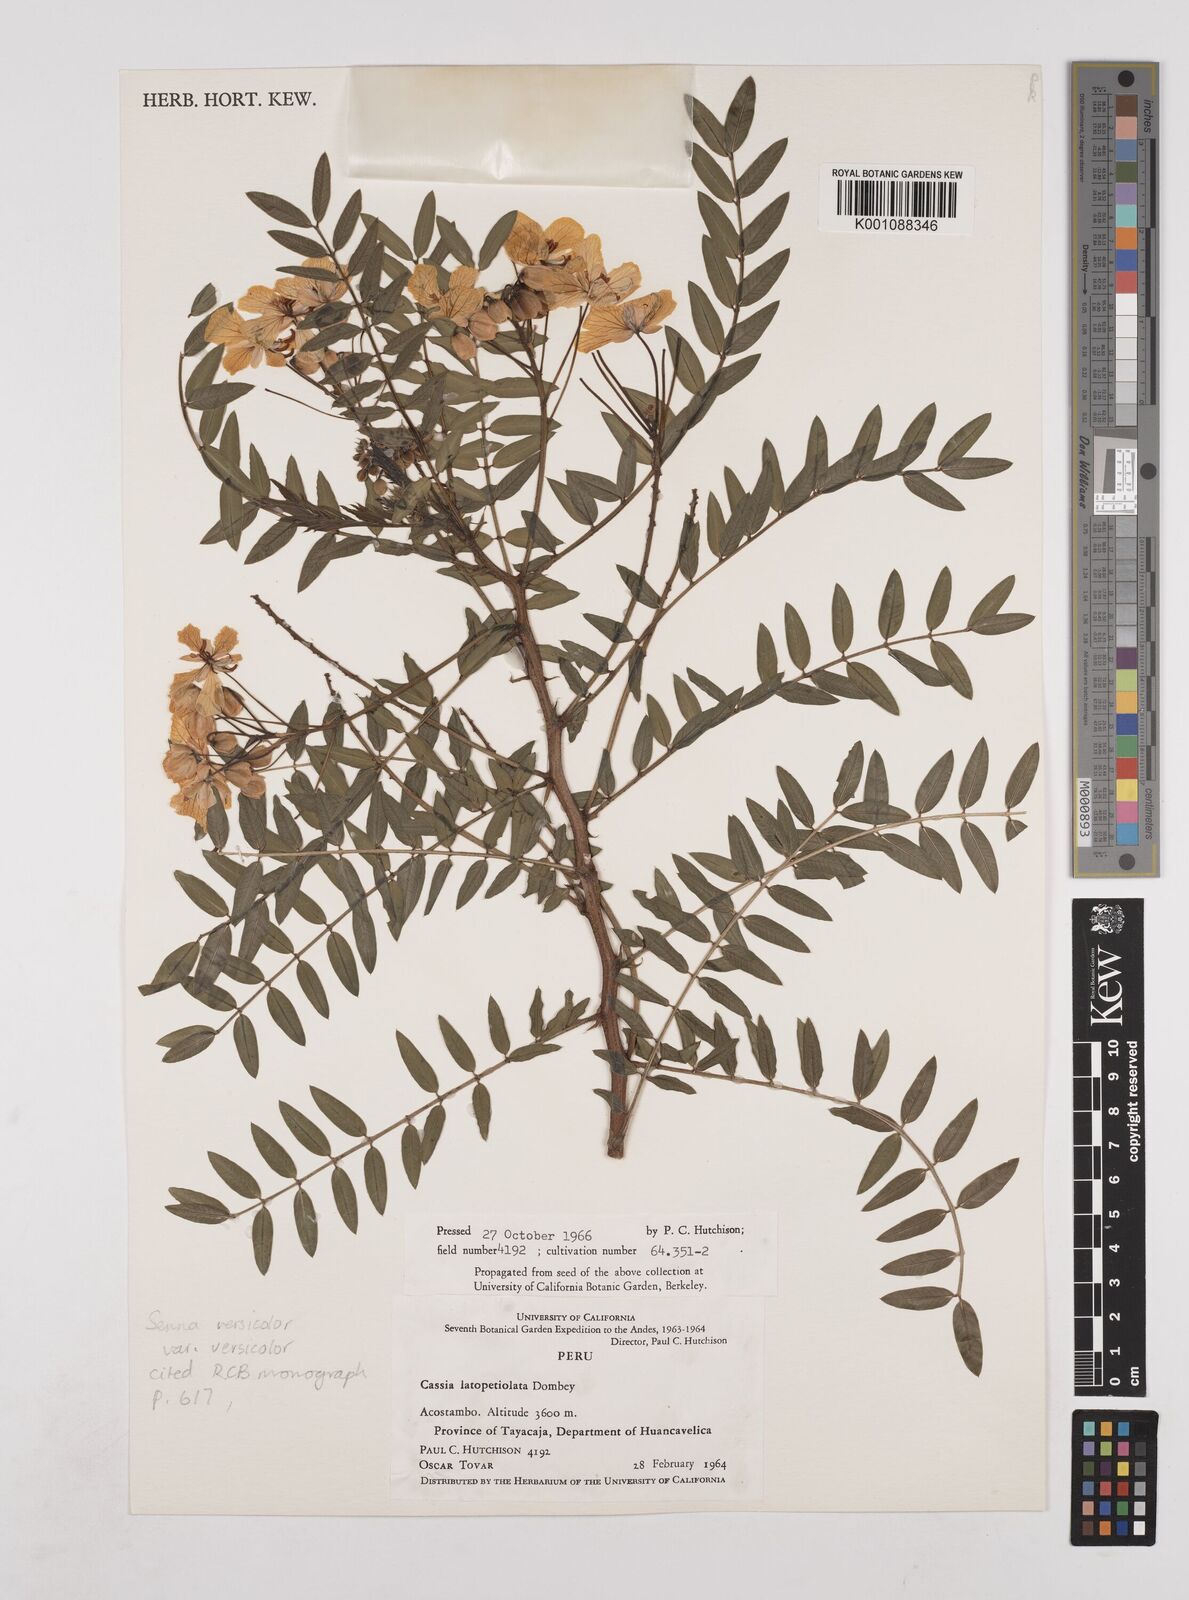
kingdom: Plantae
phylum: Tracheophyta
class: Magnoliopsida
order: Fabales
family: Fabaceae
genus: Senna
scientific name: Senna versicolor
